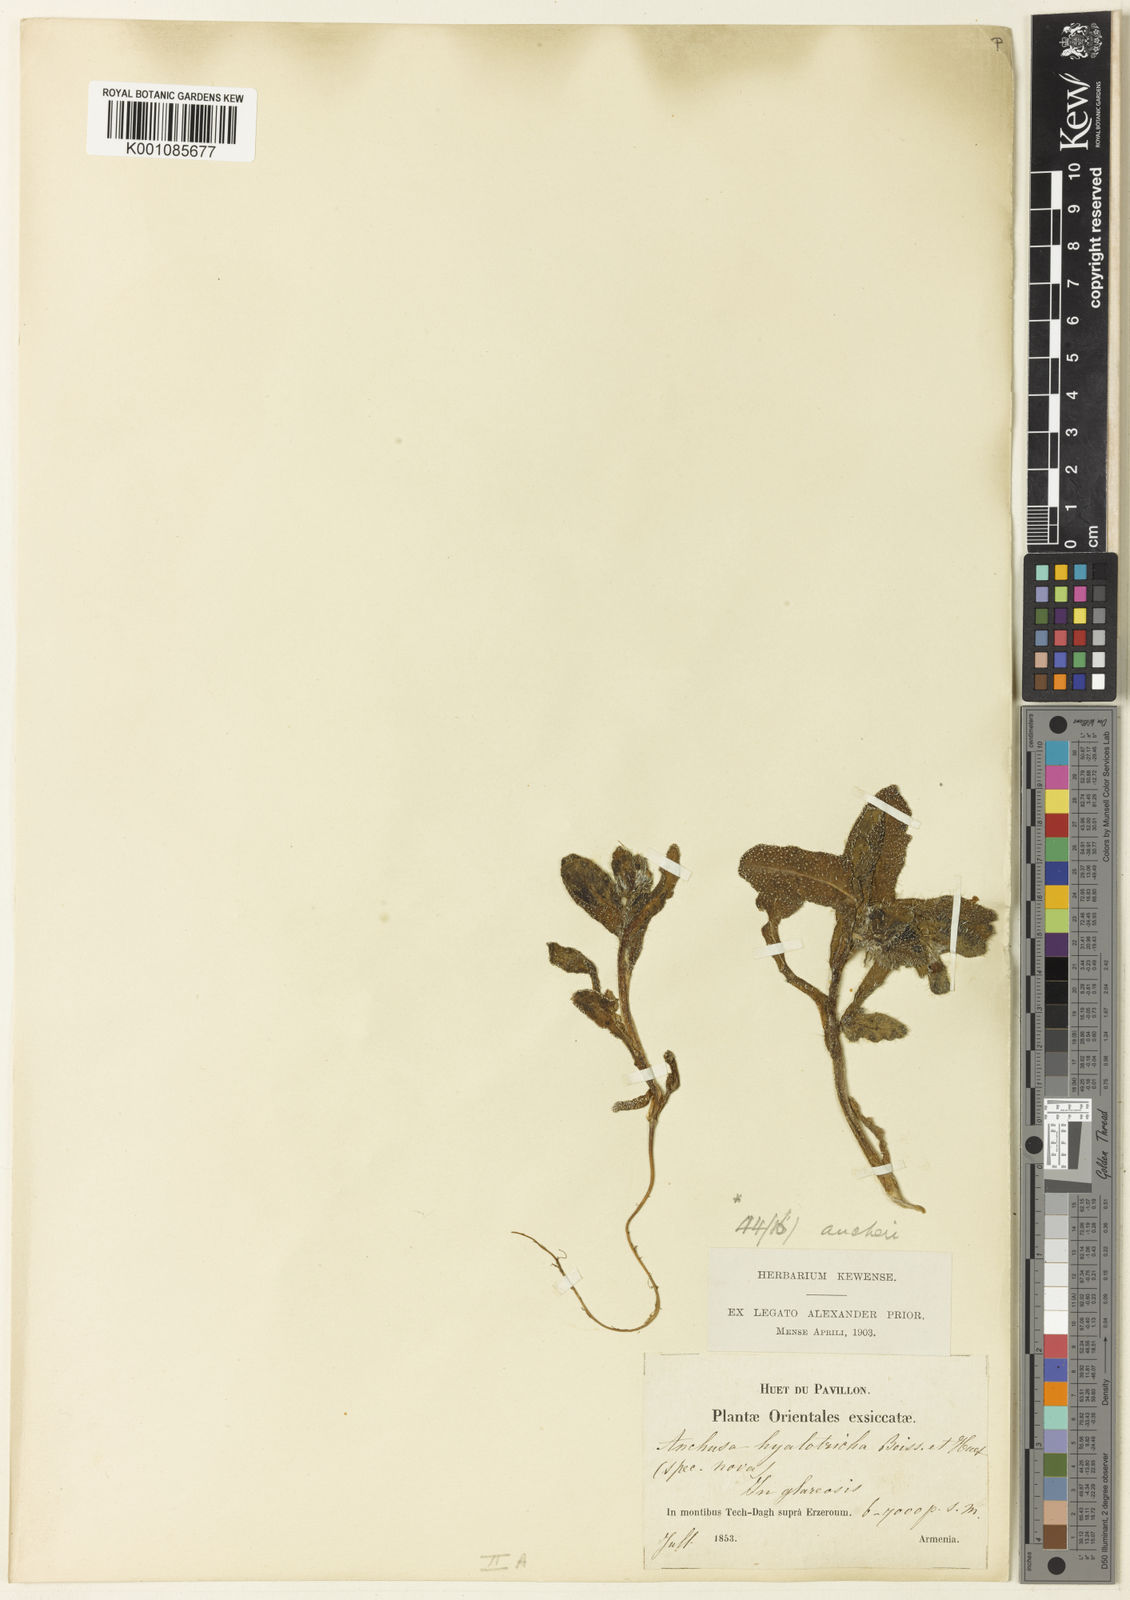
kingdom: Plantae
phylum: Tracheophyta
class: Magnoliopsida
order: Boraginales
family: Boraginaceae
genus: Phyllocara
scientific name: Phyllocara aucheri
